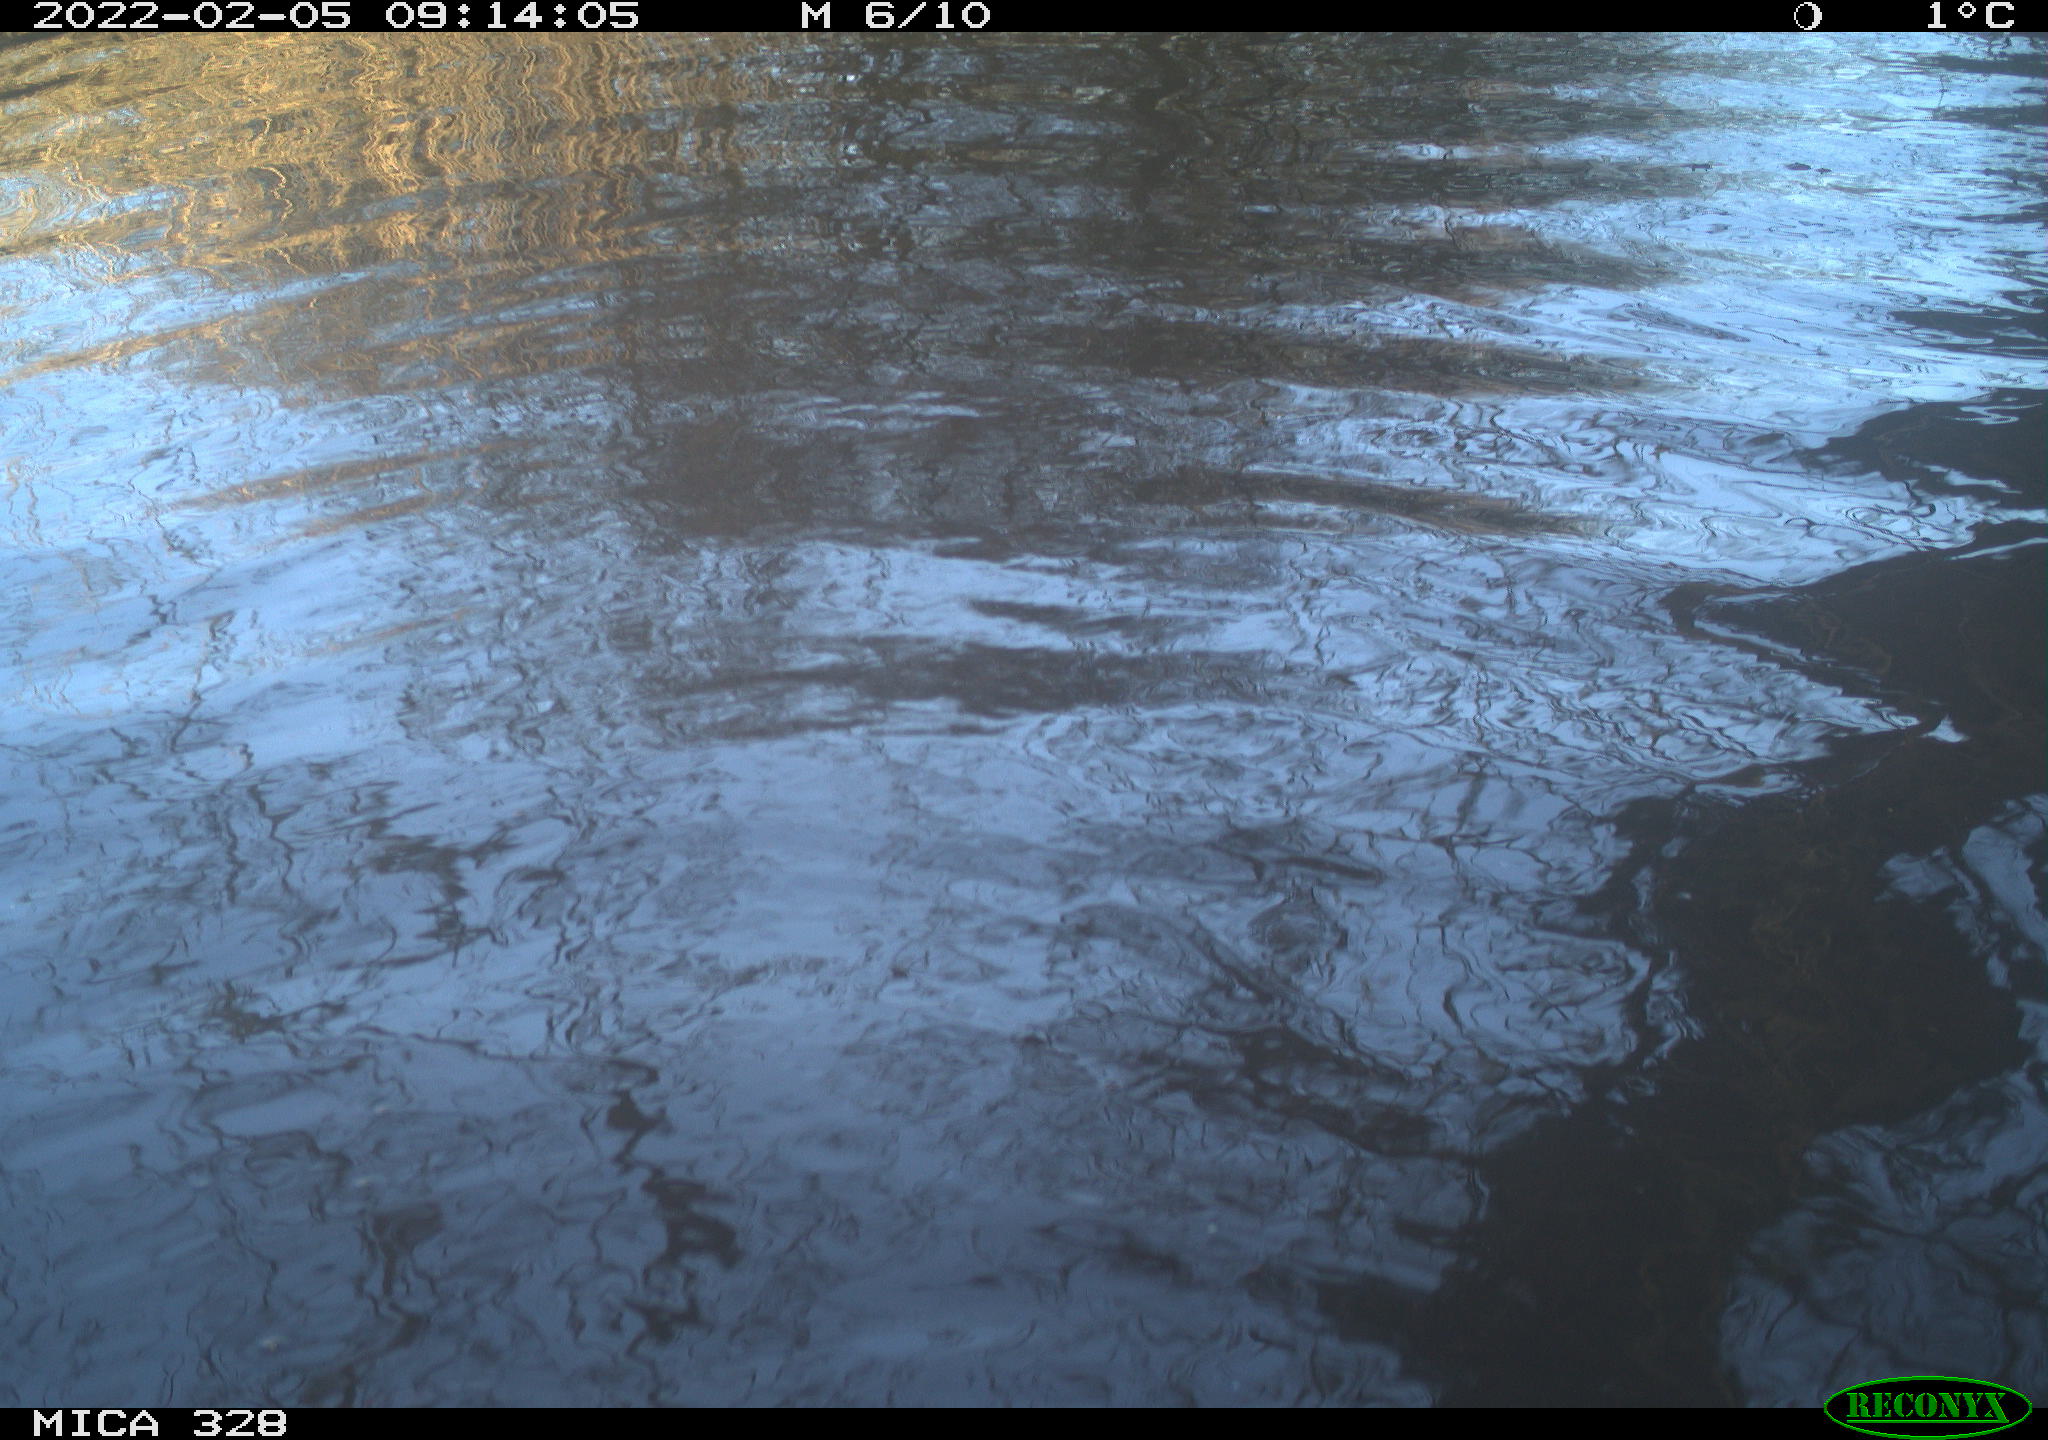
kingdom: Animalia
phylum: Chordata
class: Mammalia
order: Rodentia
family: Cricetidae
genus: Ondatra
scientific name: Ondatra zibethicus
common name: Muskrat
